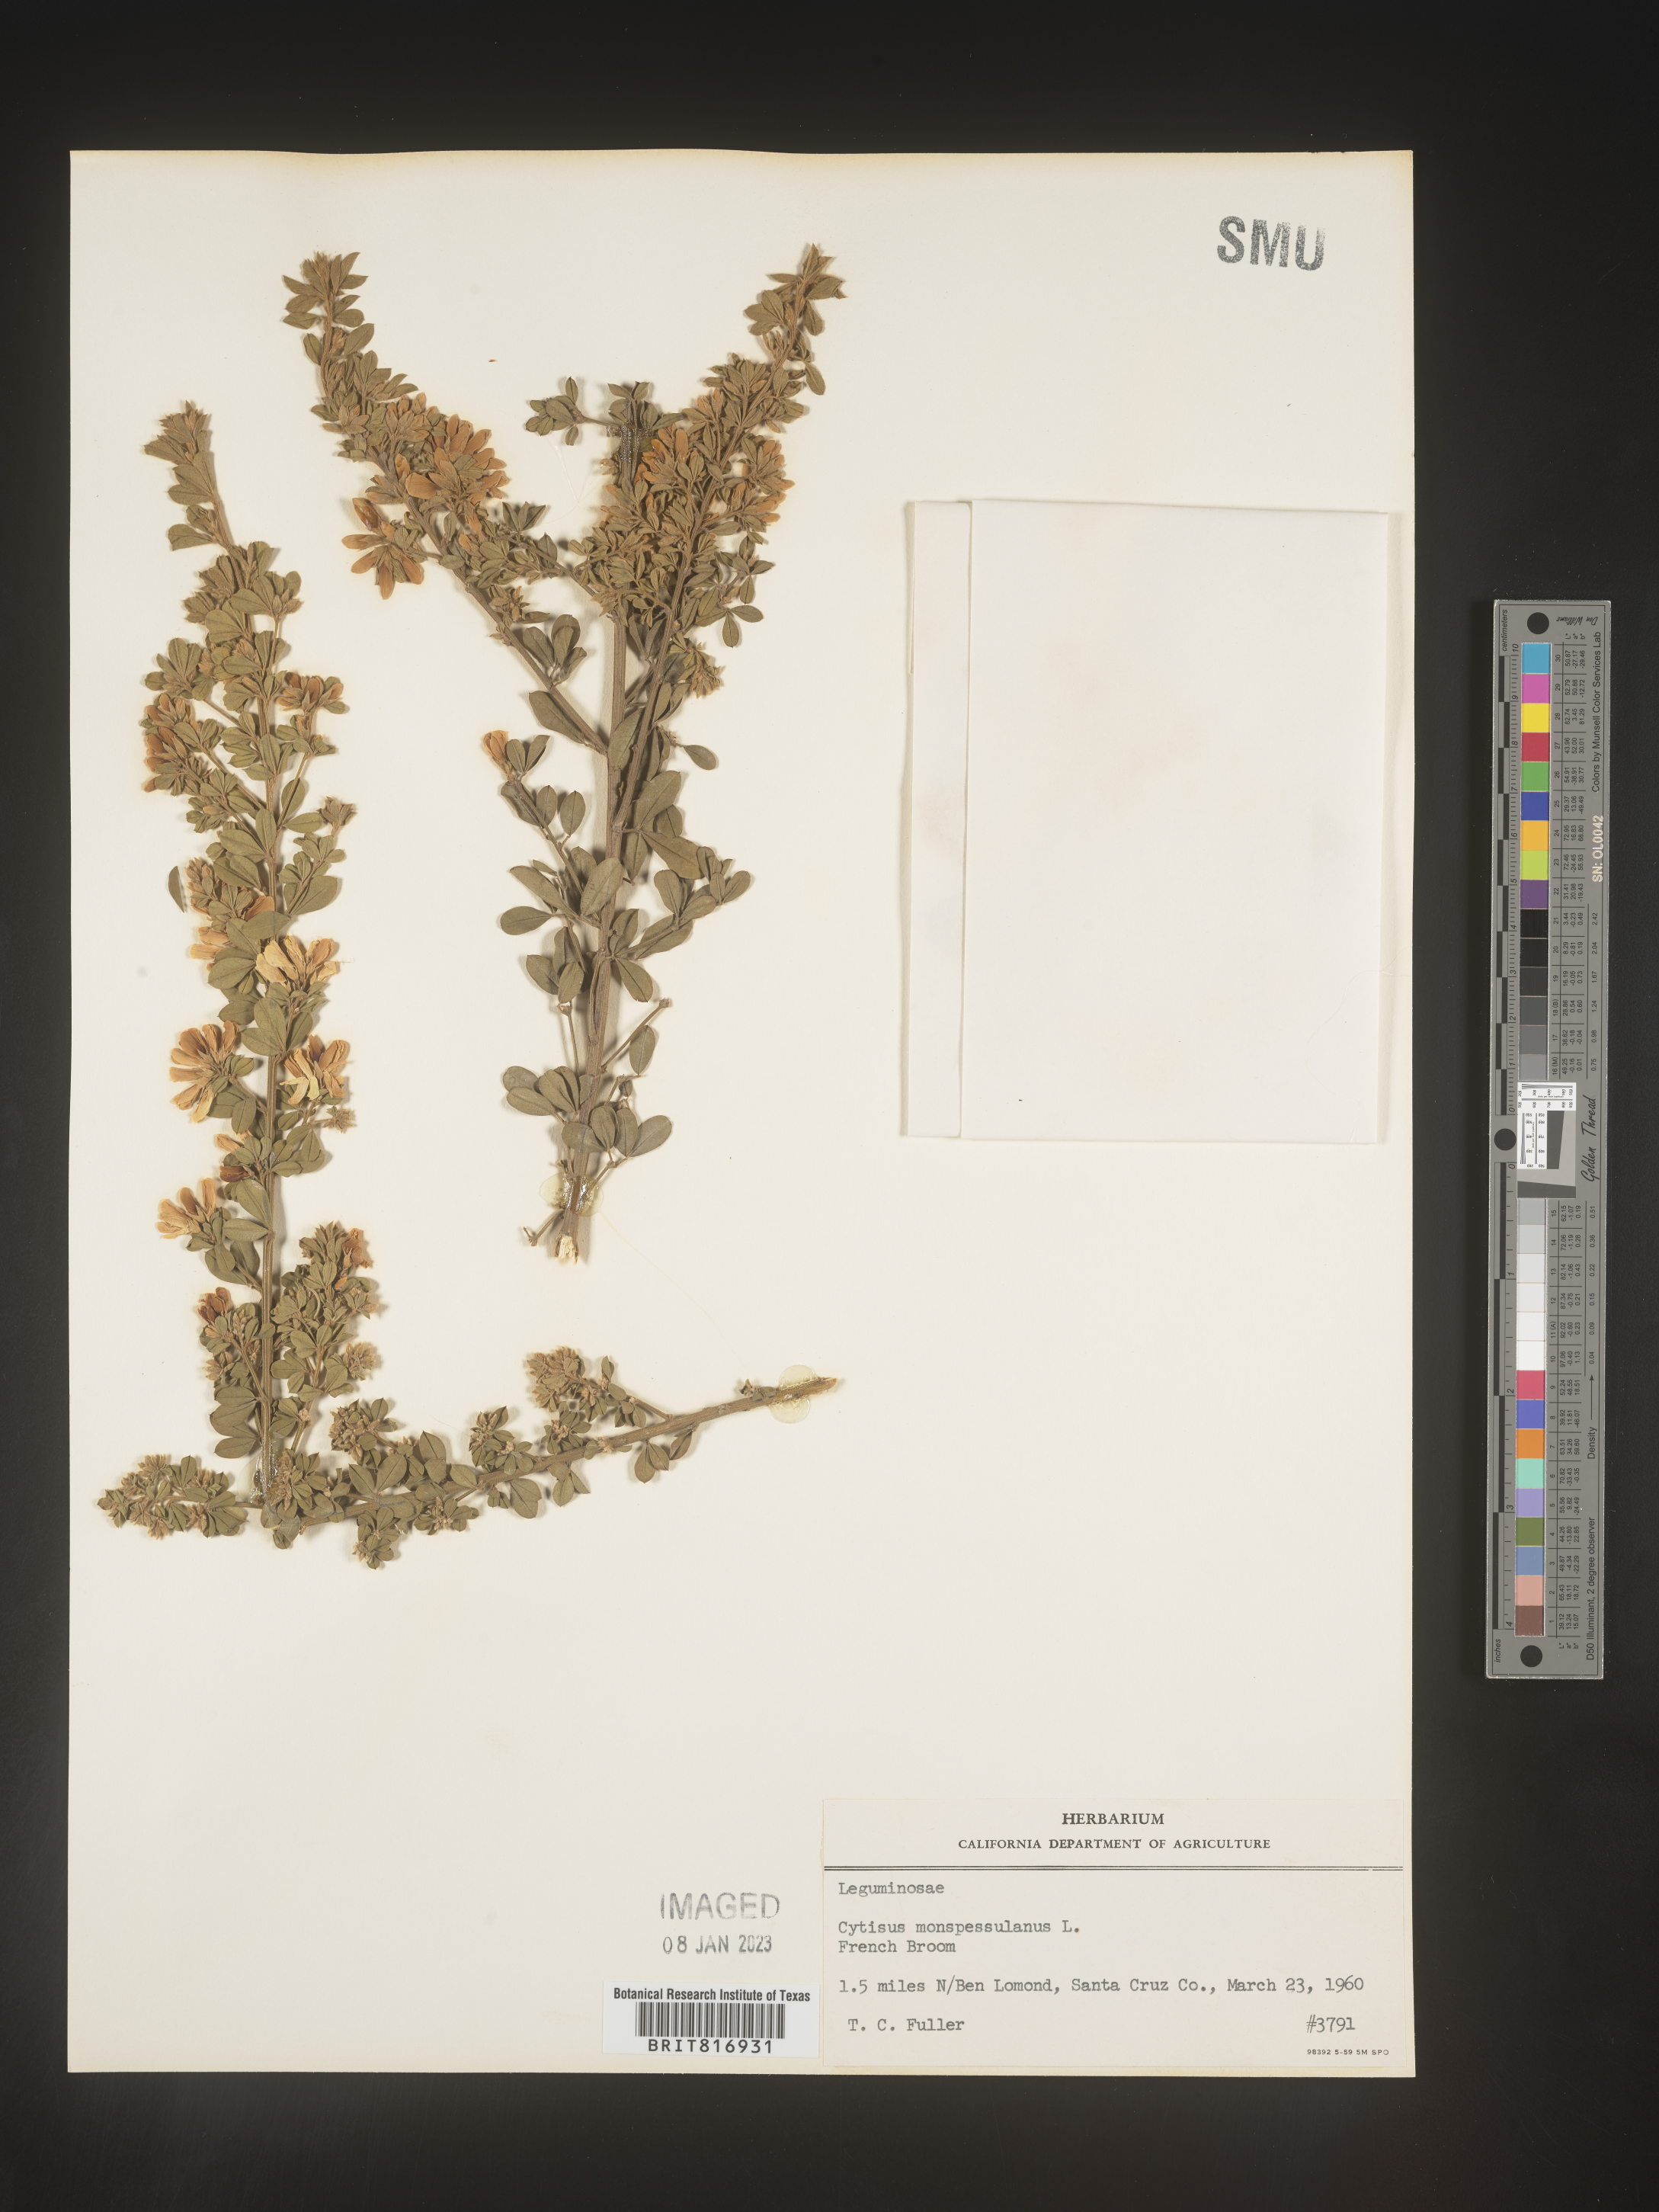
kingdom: Plantae
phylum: Tracheophyta
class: Magnoliopsida
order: Fabales
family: Fabaceae
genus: Cytisus
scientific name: Cytisus
